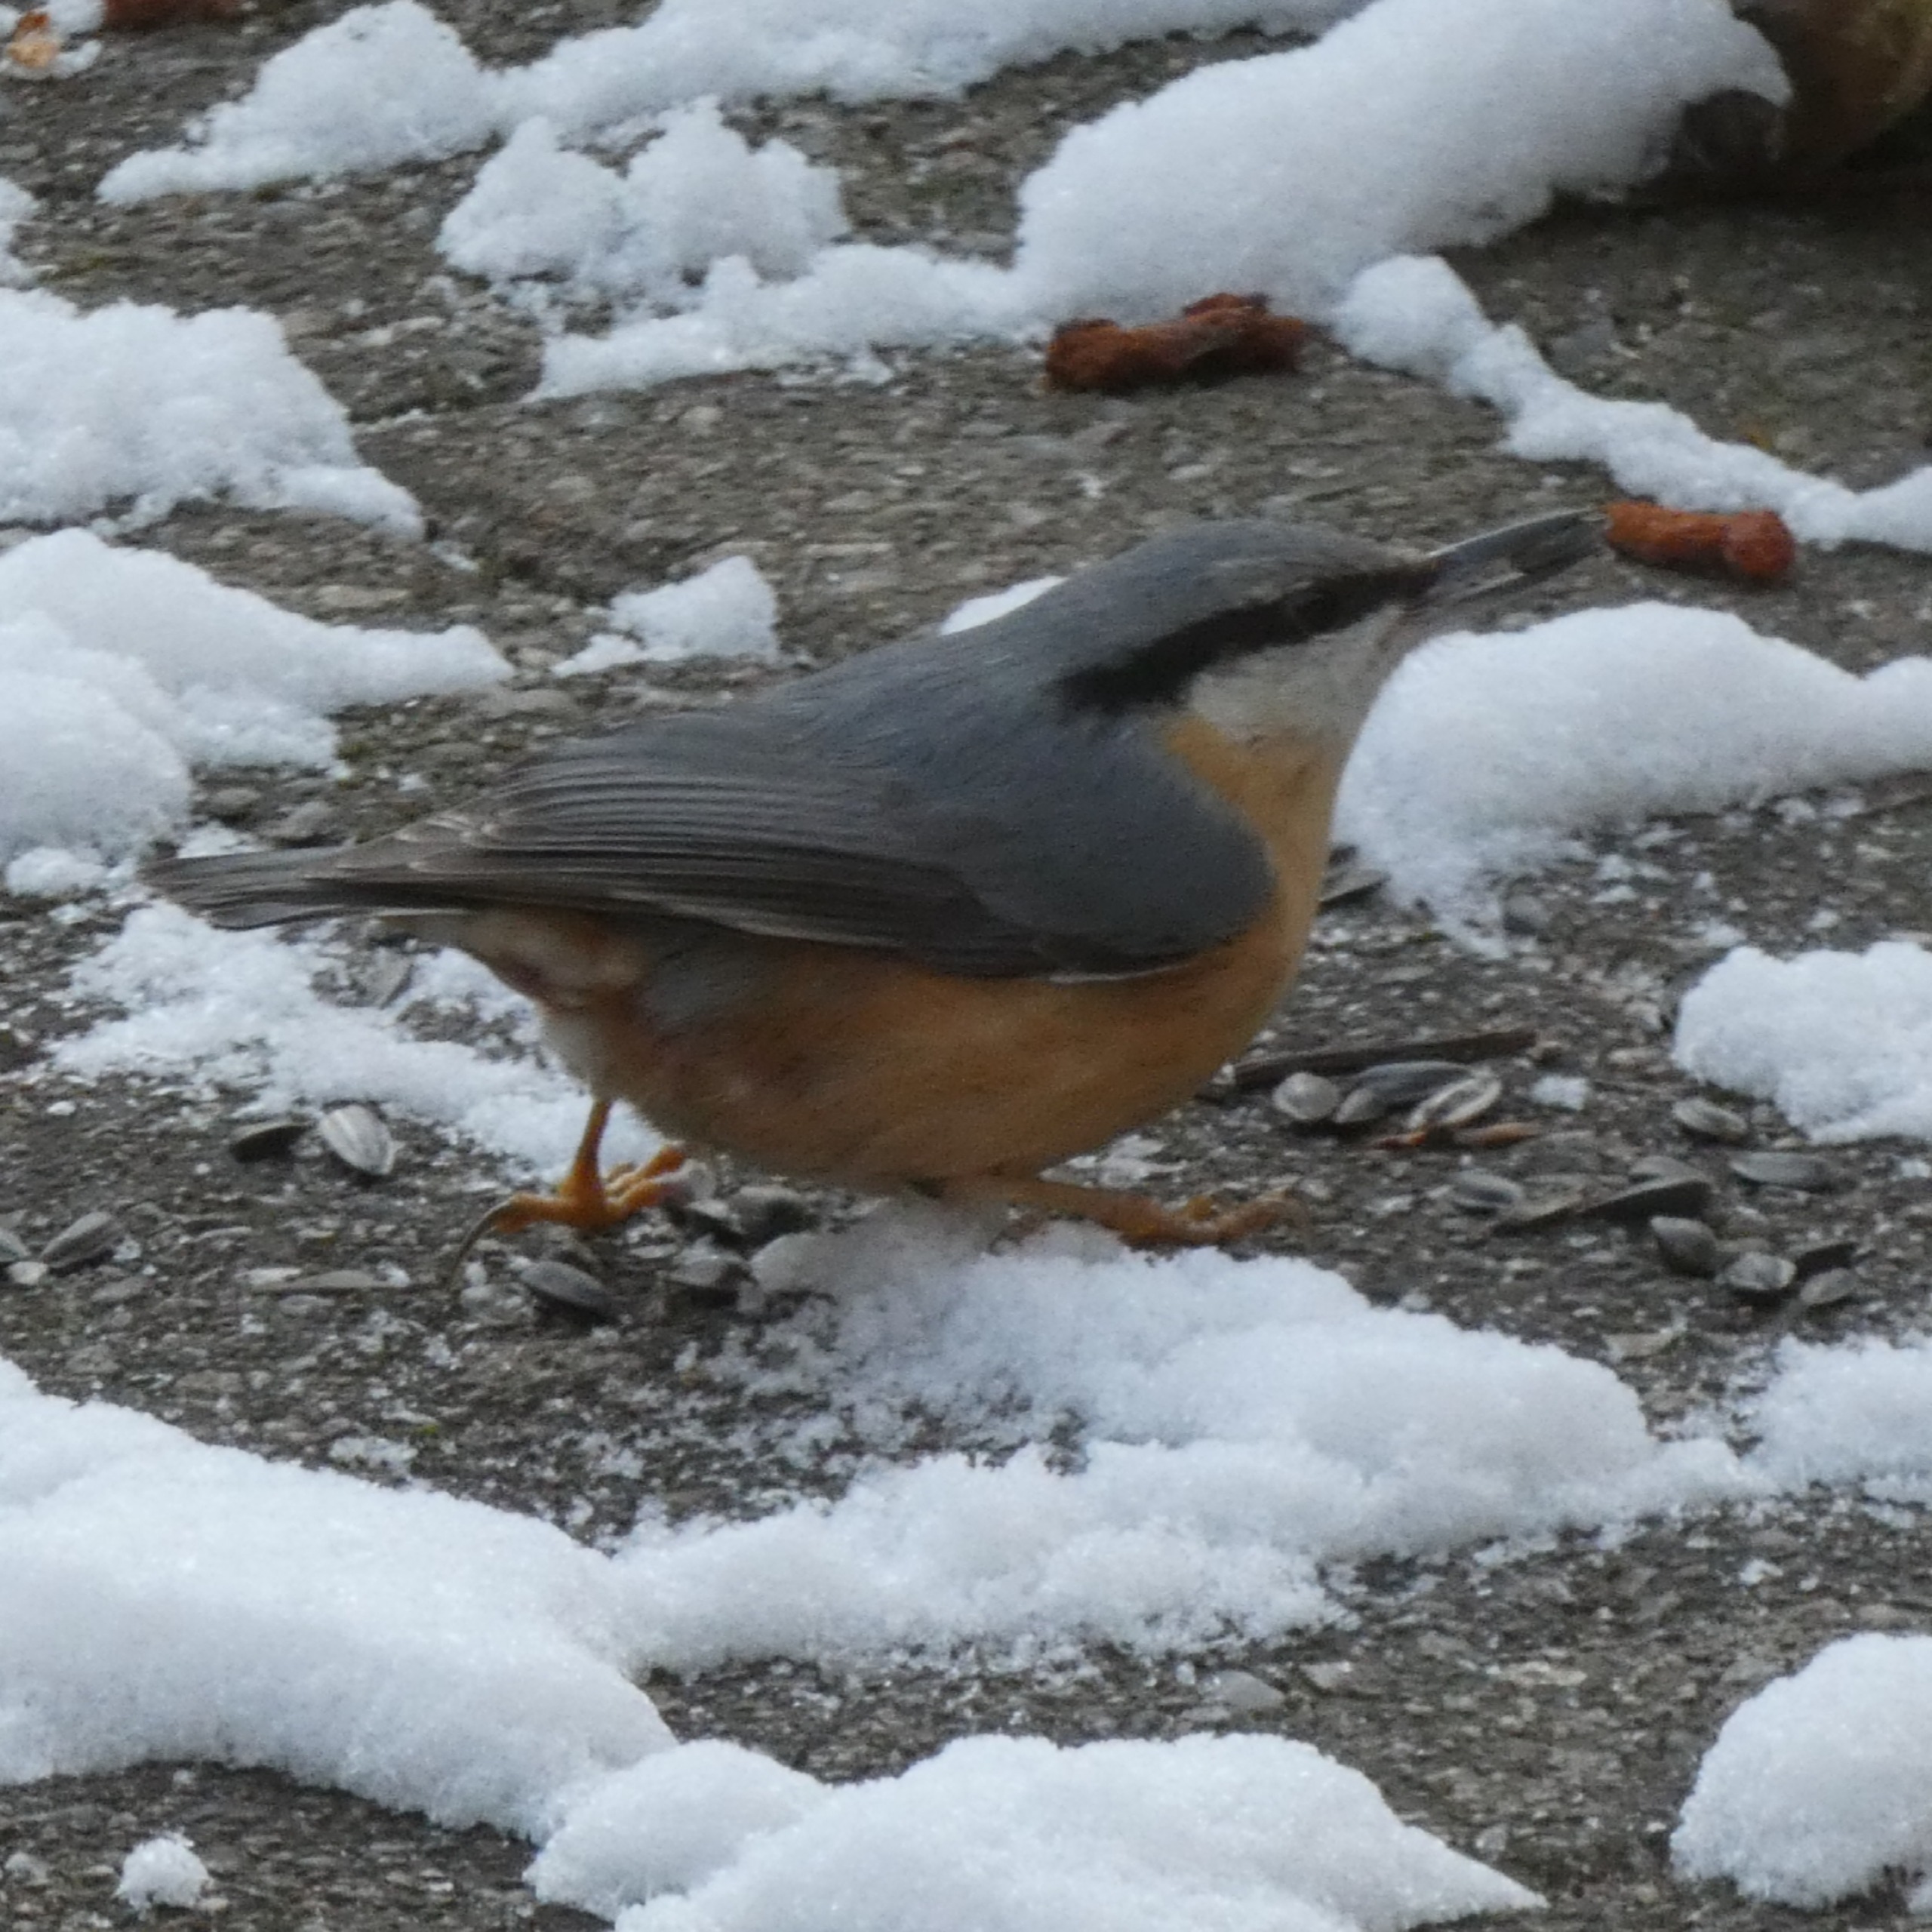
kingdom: Animalia
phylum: Chordata
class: Aves
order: Passeriformes
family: Sittidae
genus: Sitta
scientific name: Sitta europaea
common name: Spætmejse
